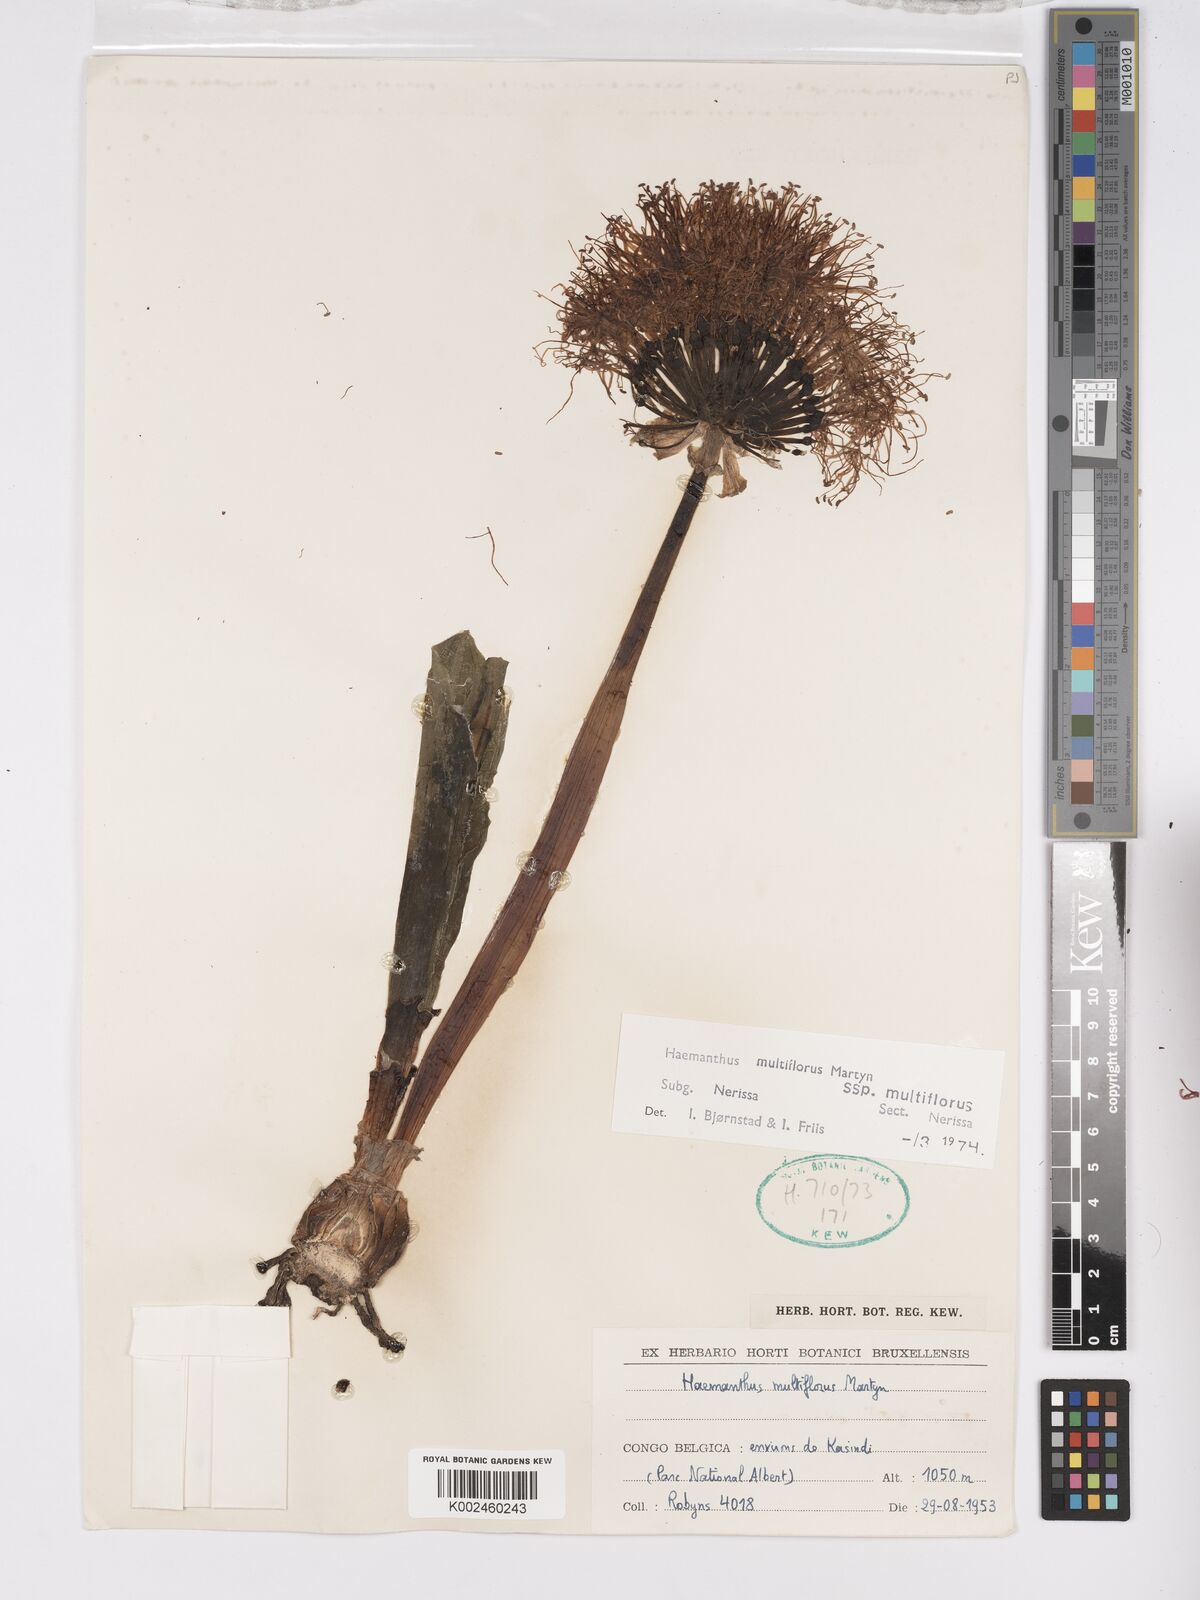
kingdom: Plantae
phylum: Tracheophyta
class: Liliopsida
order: Asparagales
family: Amaryllidaceae
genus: Scadoxus
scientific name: Scadoxus multiflorus
